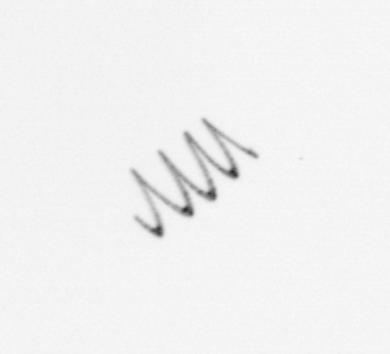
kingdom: Chromista
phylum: Ochrophyta
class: Bacillariophyceae
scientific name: Bacillariophyceae
